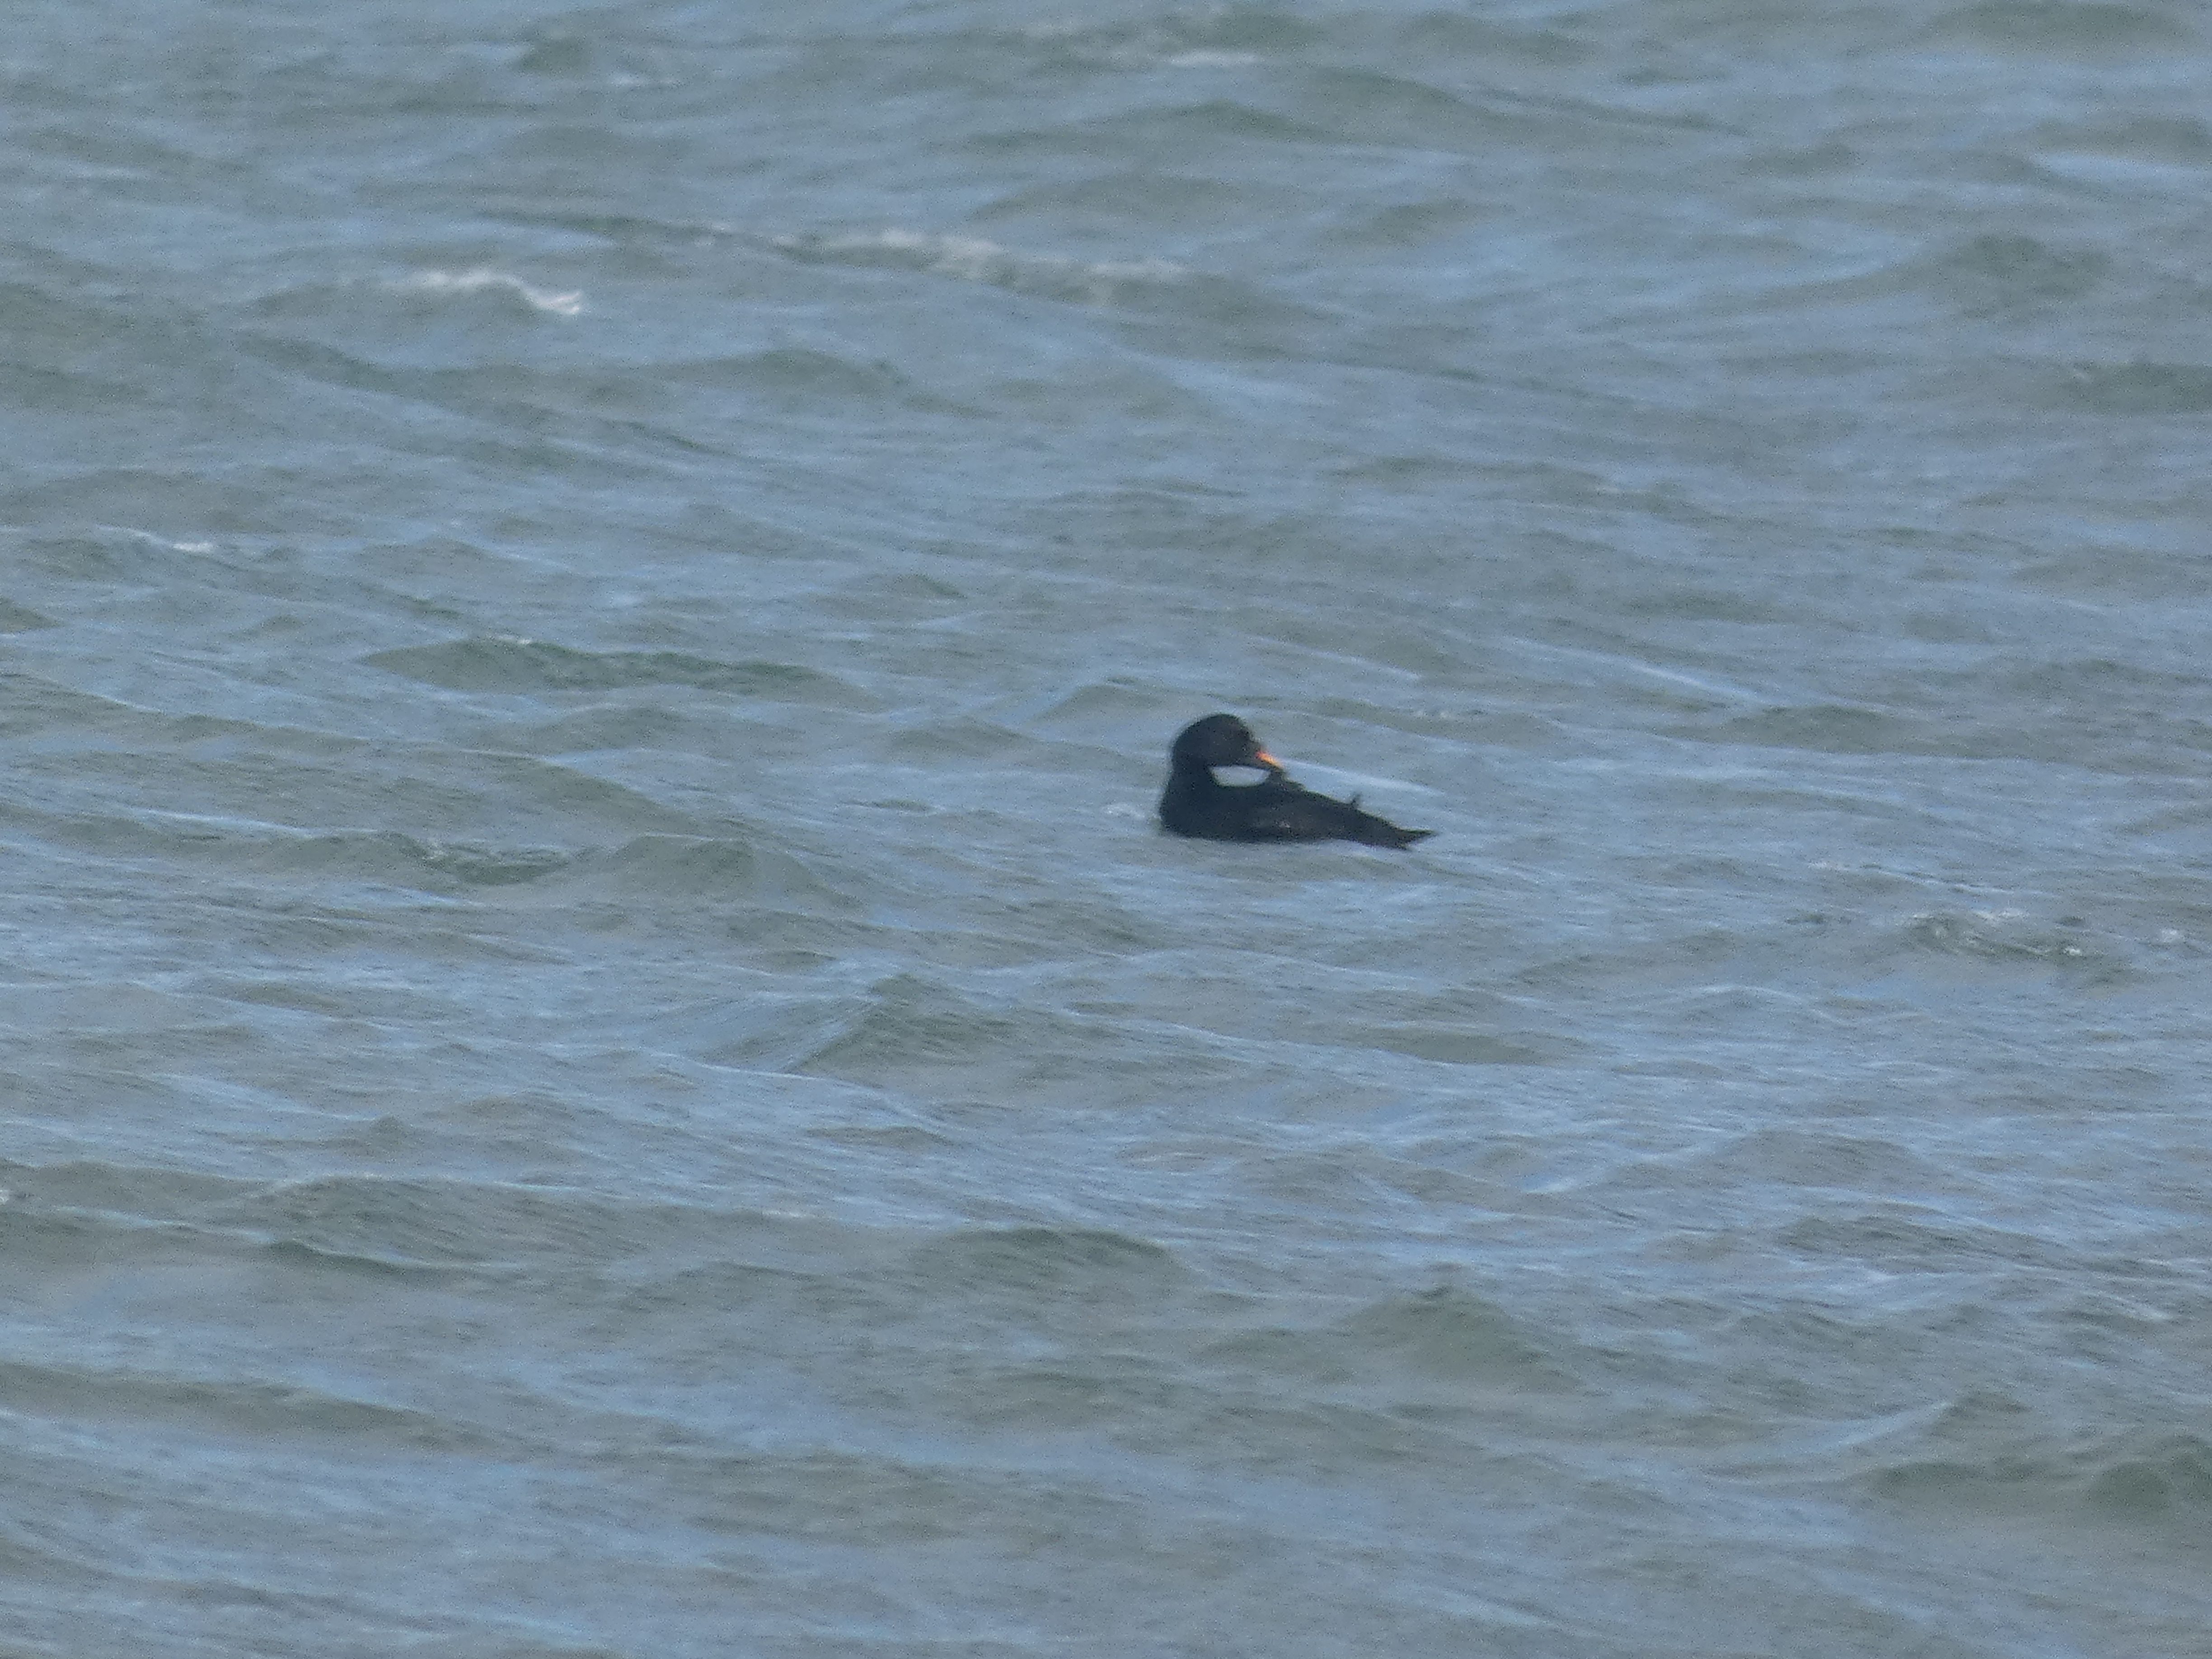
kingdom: Animalia
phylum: Chordata
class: Aves
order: Anseriformes
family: Anatidae
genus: Melanitta
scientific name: Melanitta nigra
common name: Sortand
